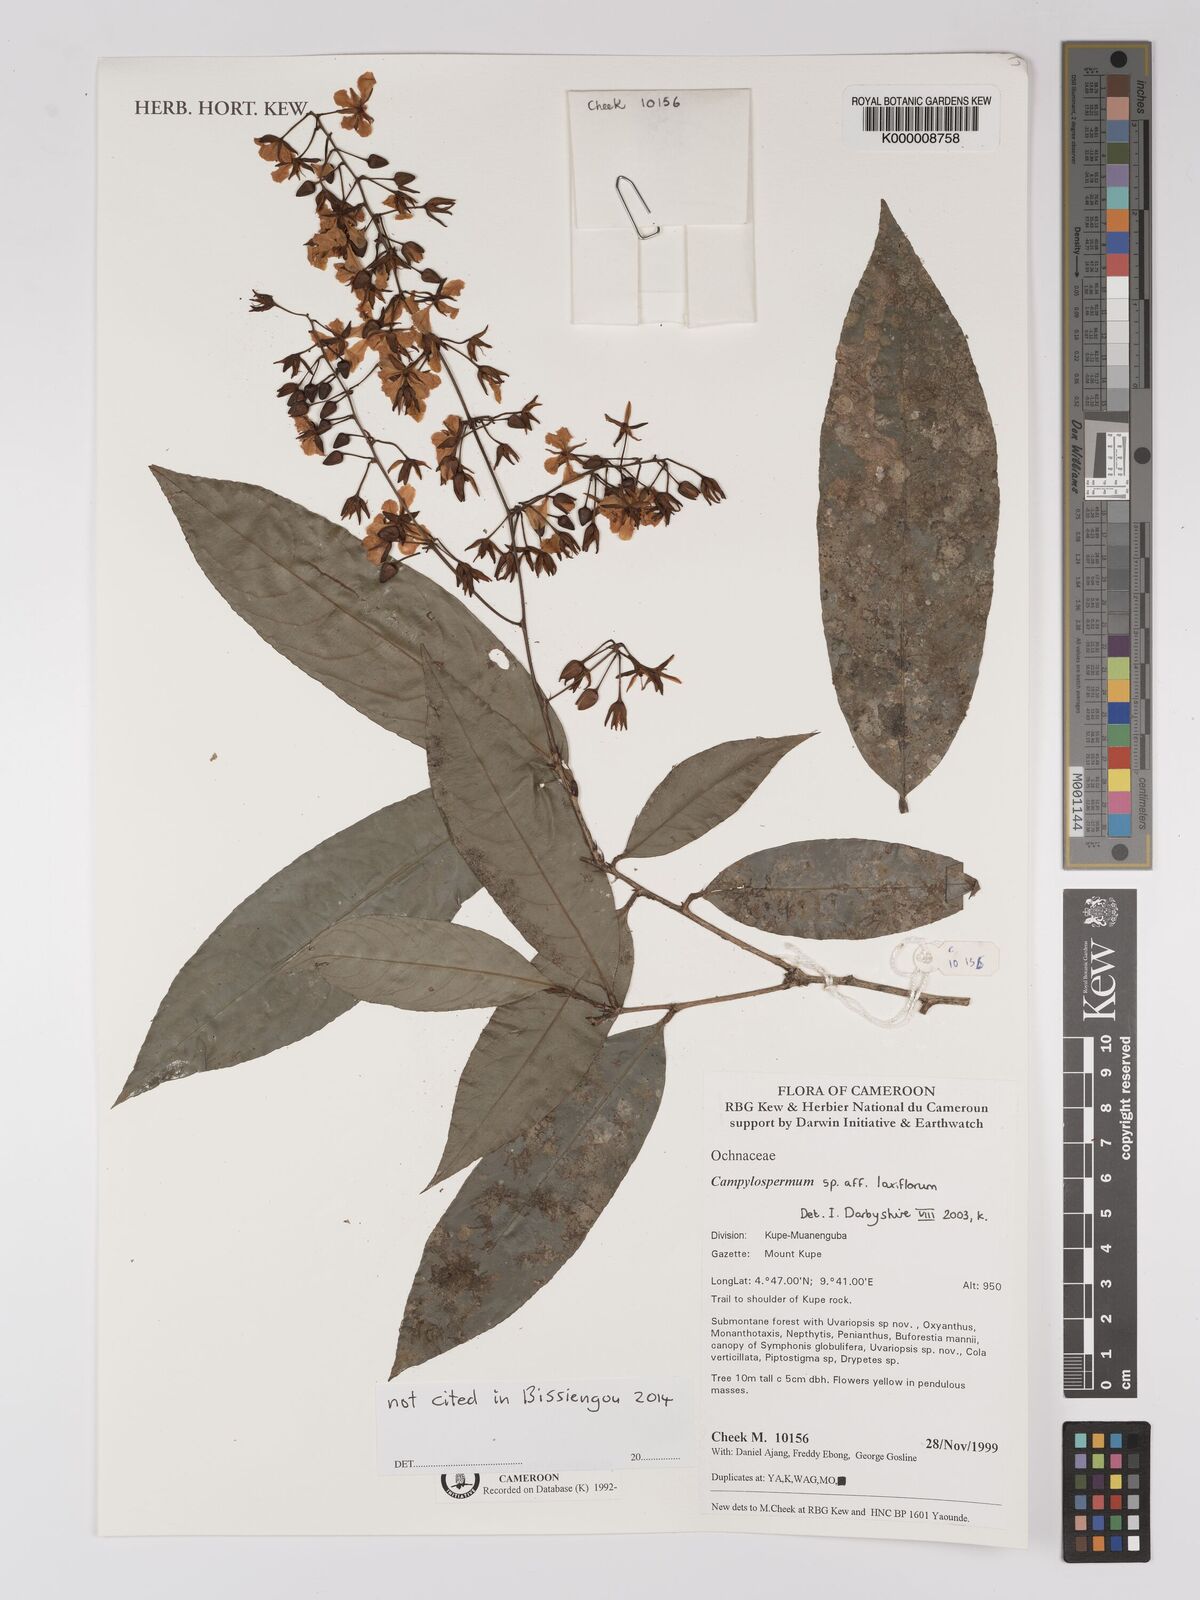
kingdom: Plantae
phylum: Tracheophyta
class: Magnoliopsida
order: Malpighiales
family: Ochnaceae
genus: Campylospermum
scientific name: Campylospermum laxiflorum
